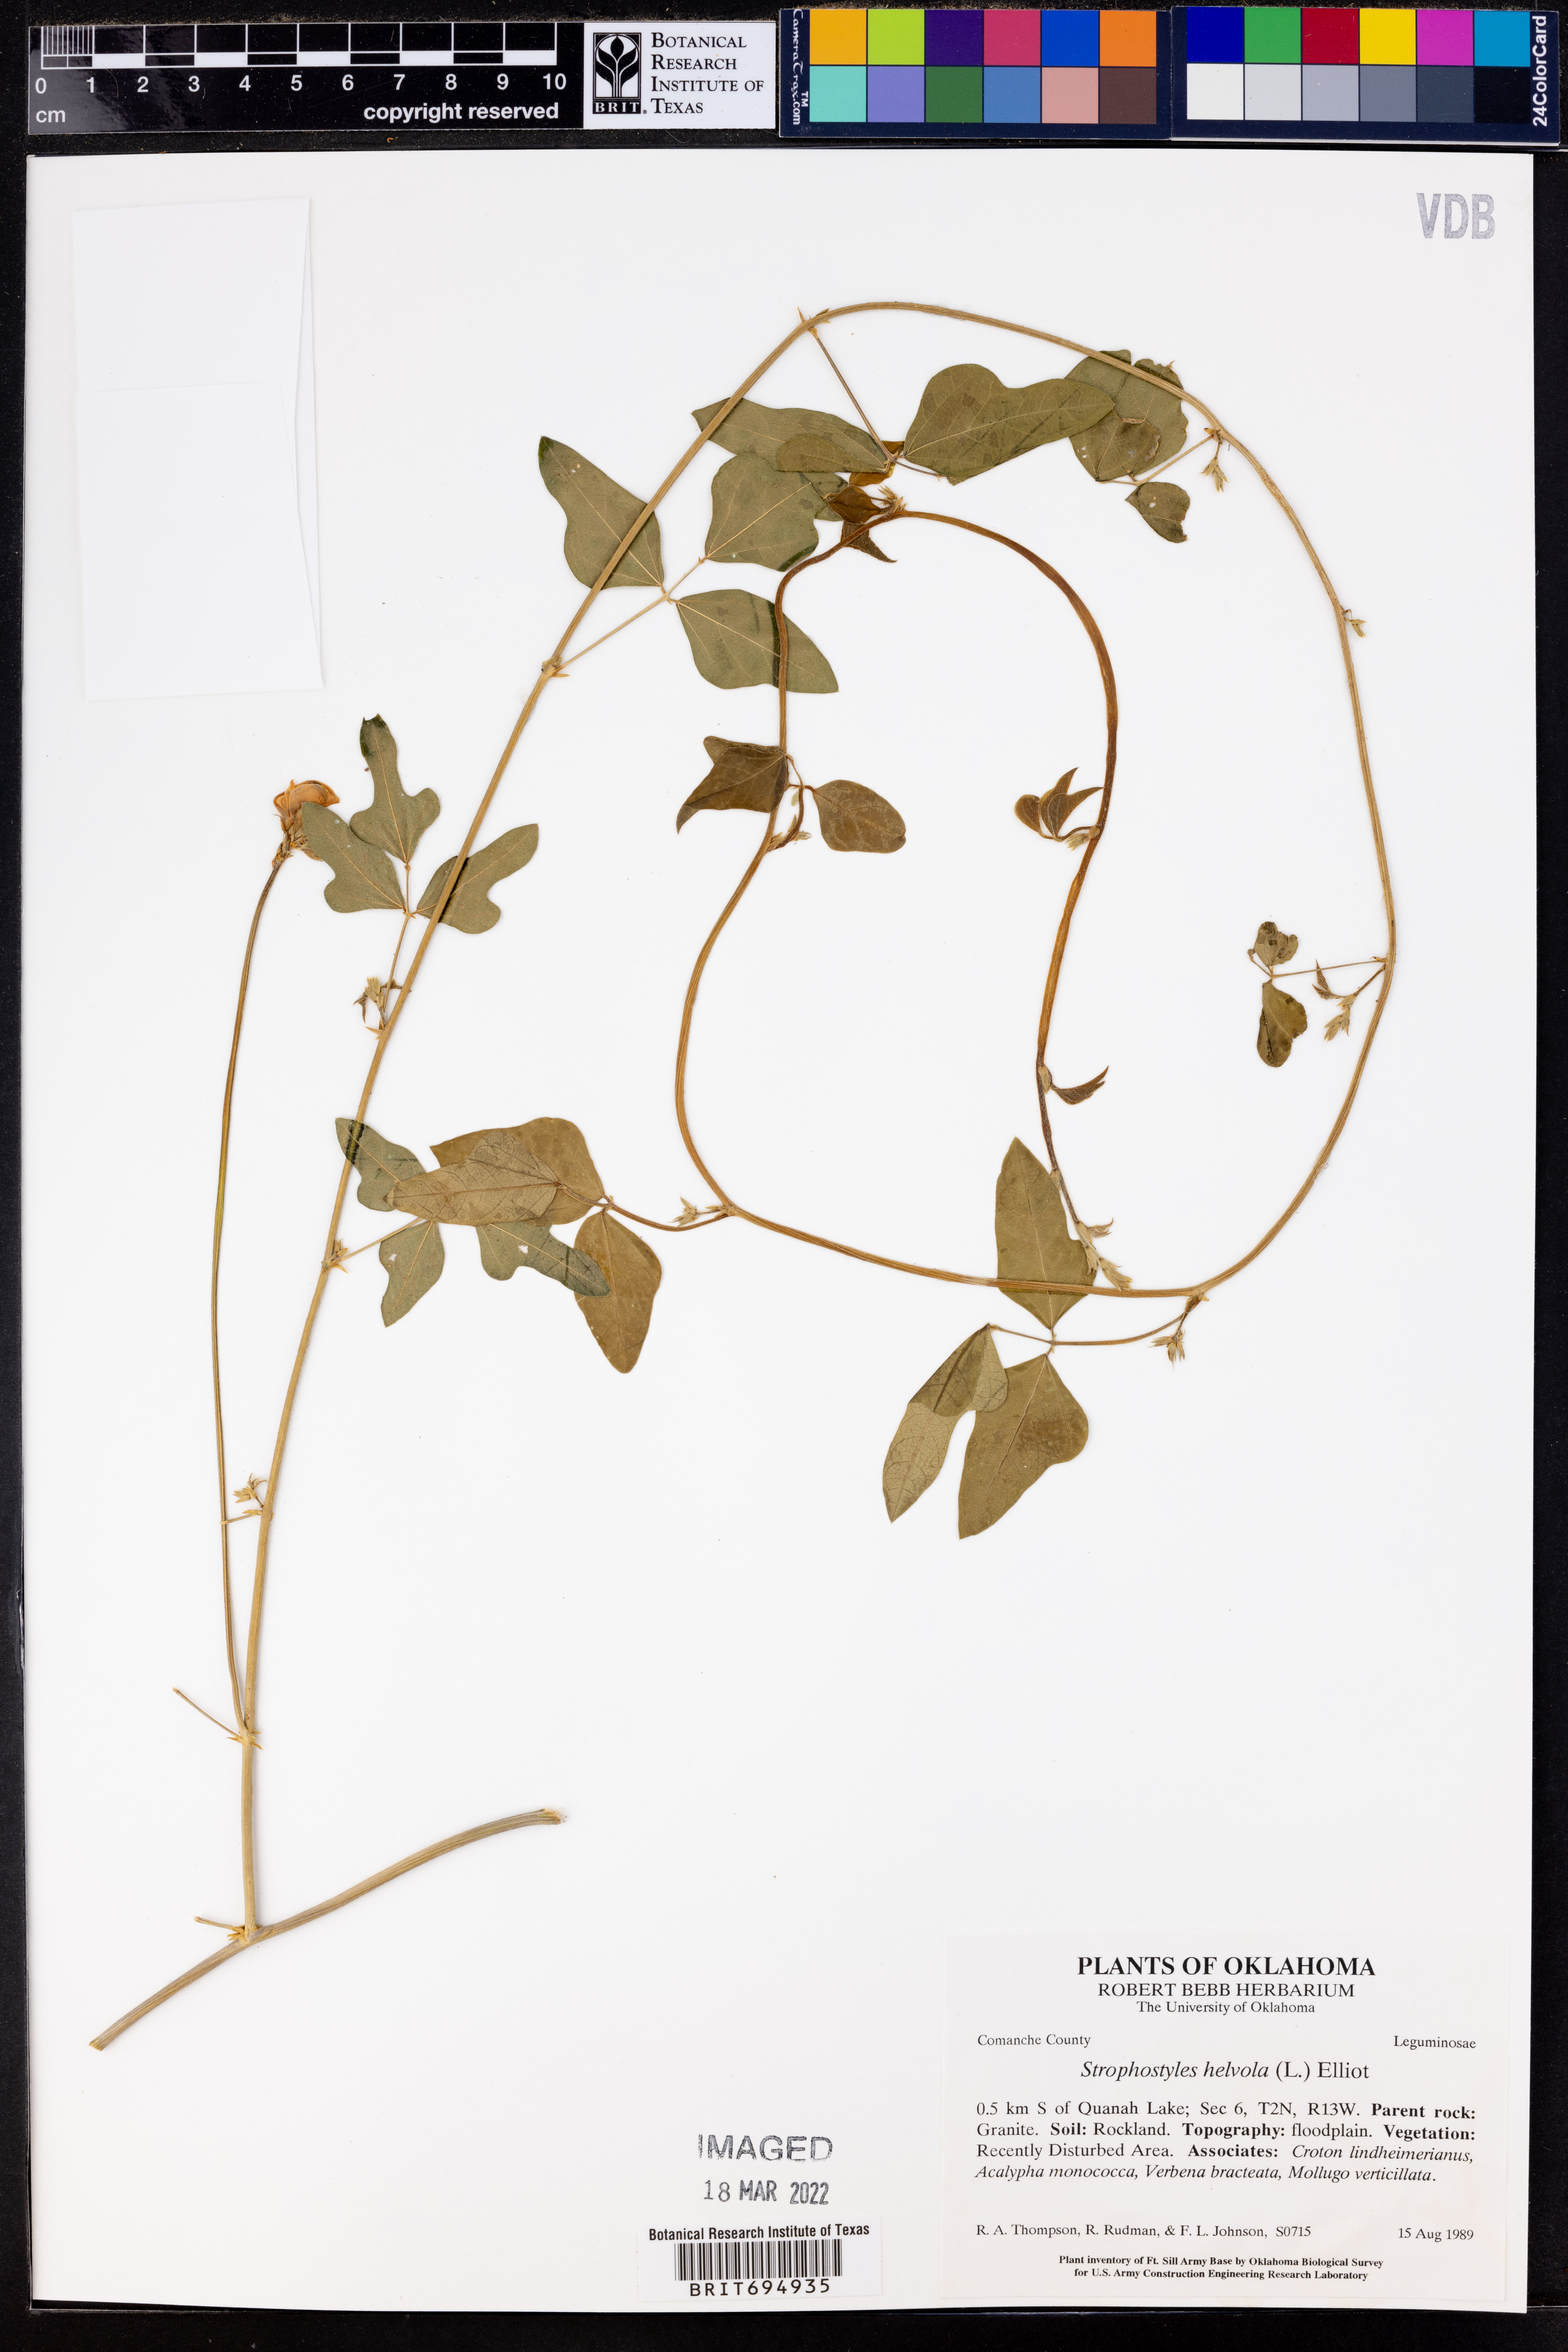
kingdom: Plantae
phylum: Tracheophyta
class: Magnoliopsida
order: Fabales
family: Fabaceae
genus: Strophostyles
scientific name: Strophostyles helvola
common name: Trailing wild bean
